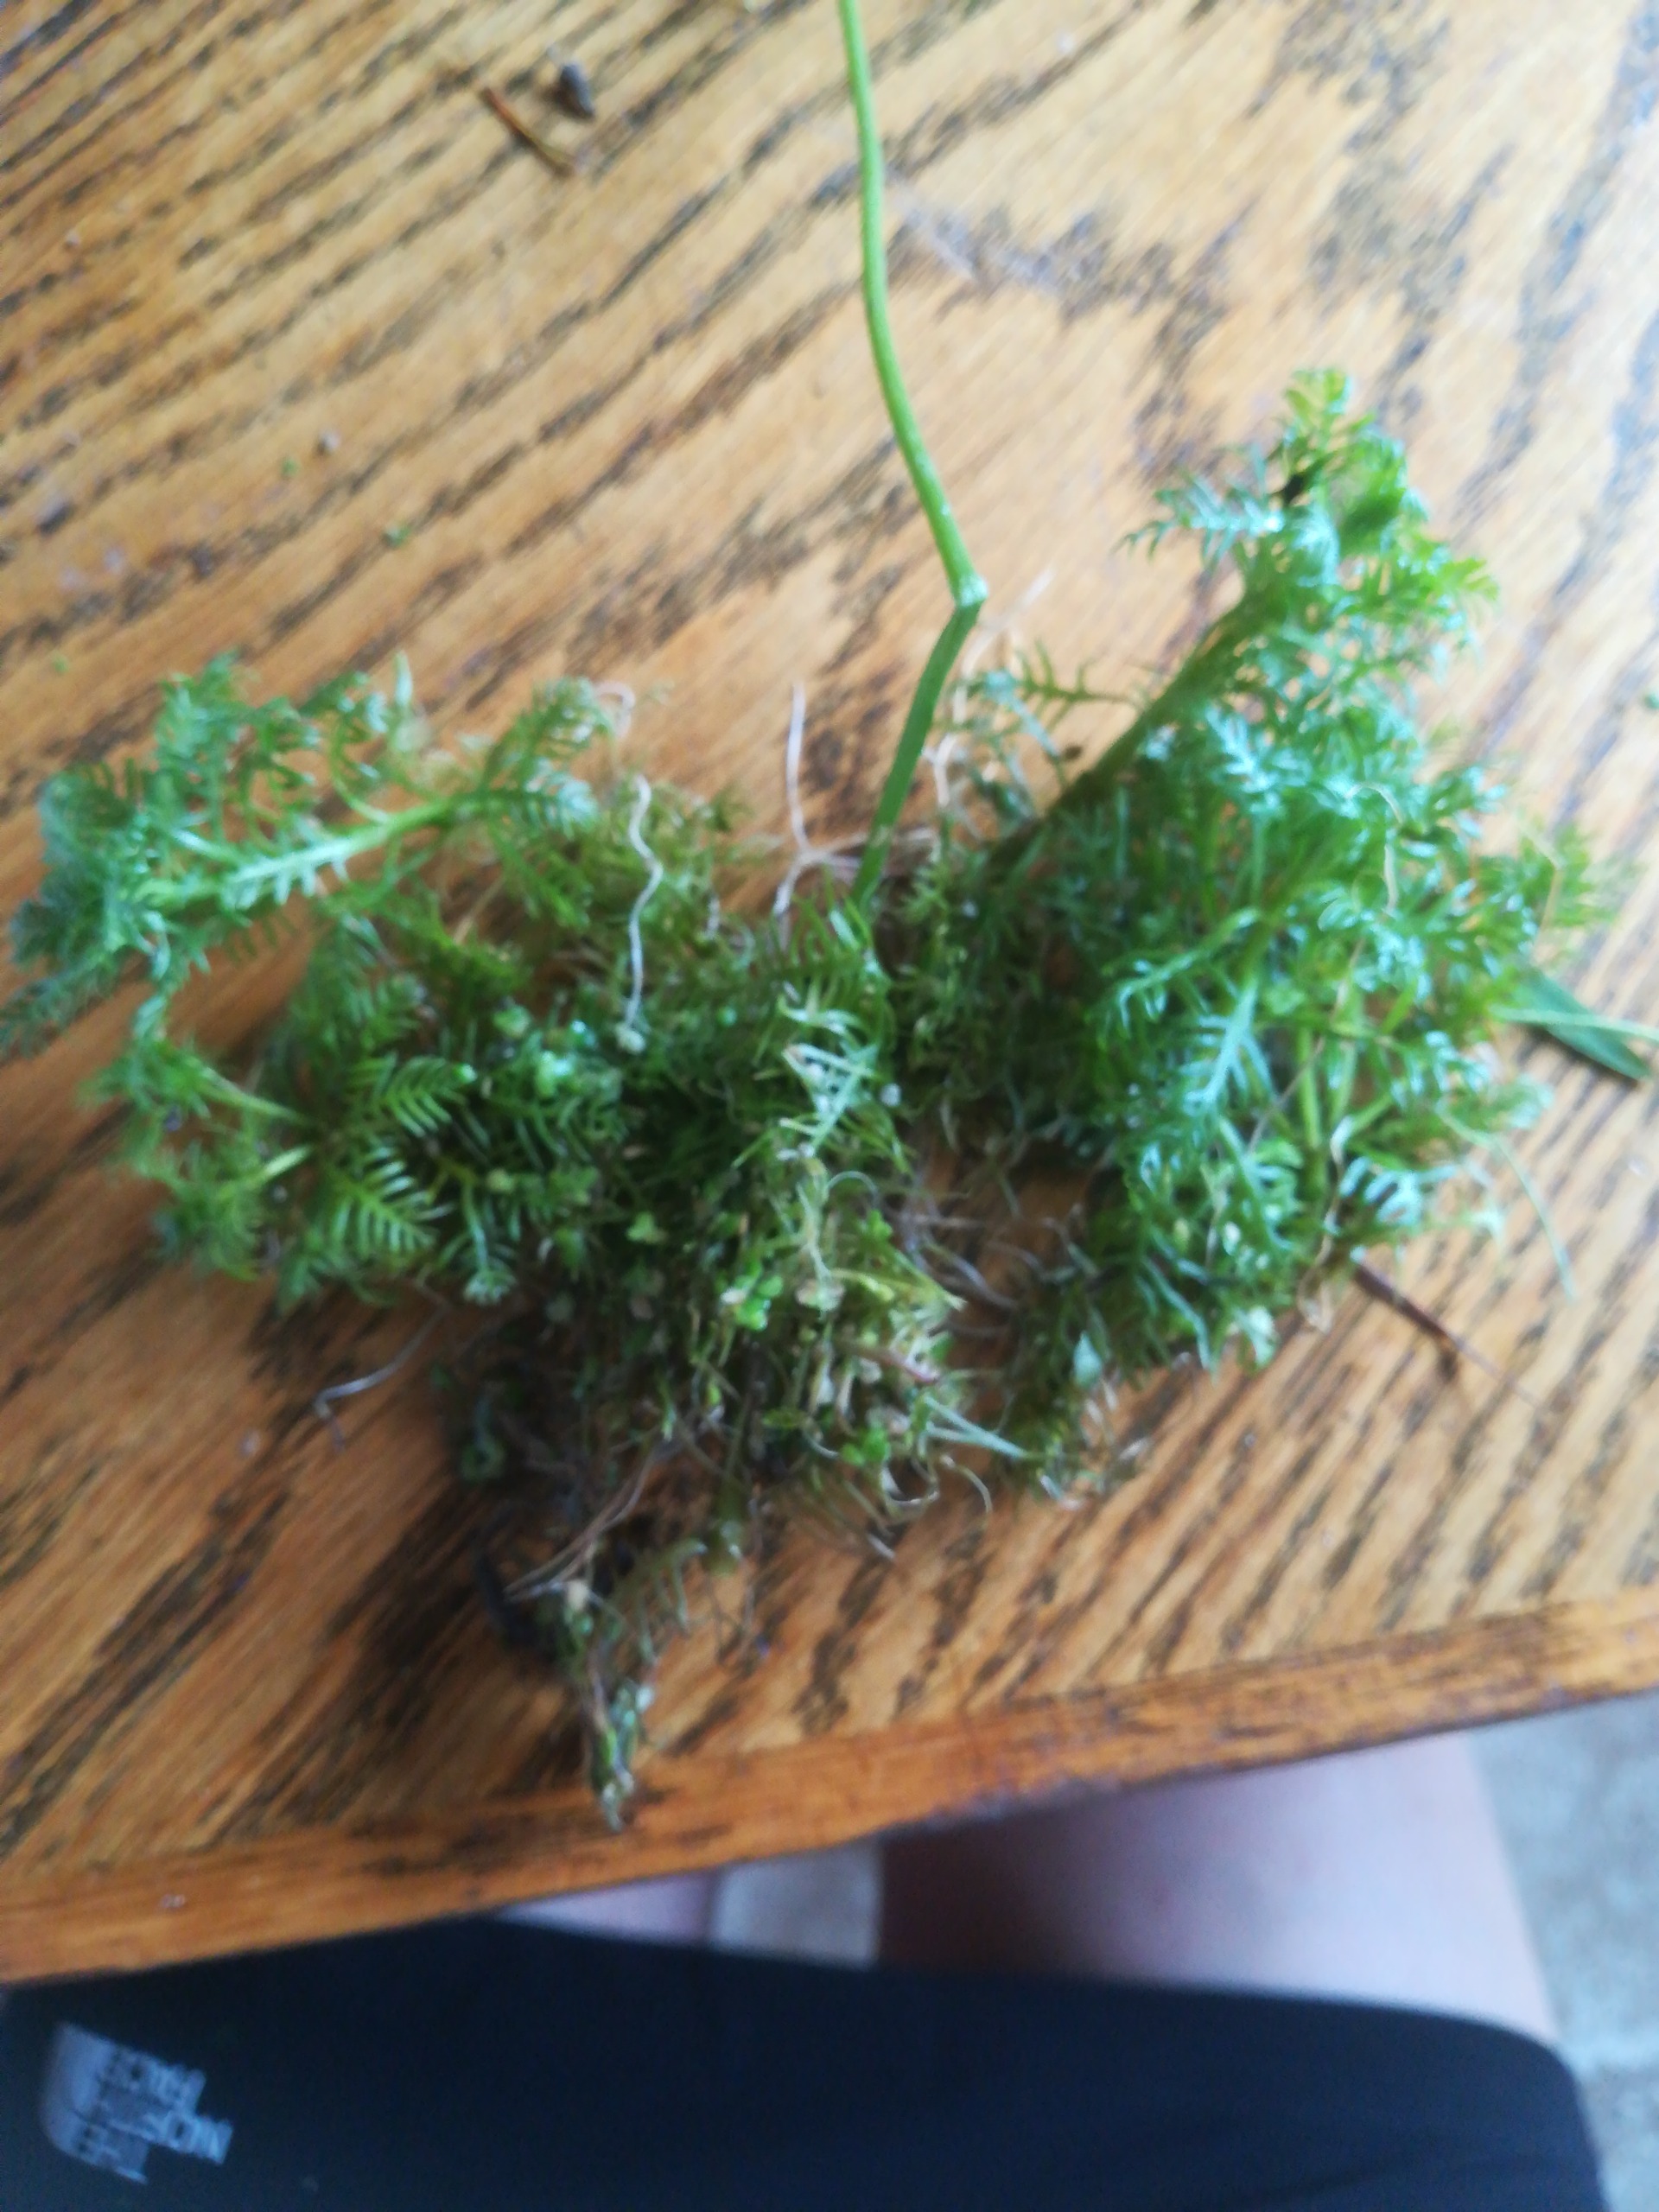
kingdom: Plantae
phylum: Tracheophyta
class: Magnoliopsida
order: Ericales
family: Primulaceae
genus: Hottonia
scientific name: Hottonia palustris
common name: Vandrøllike
